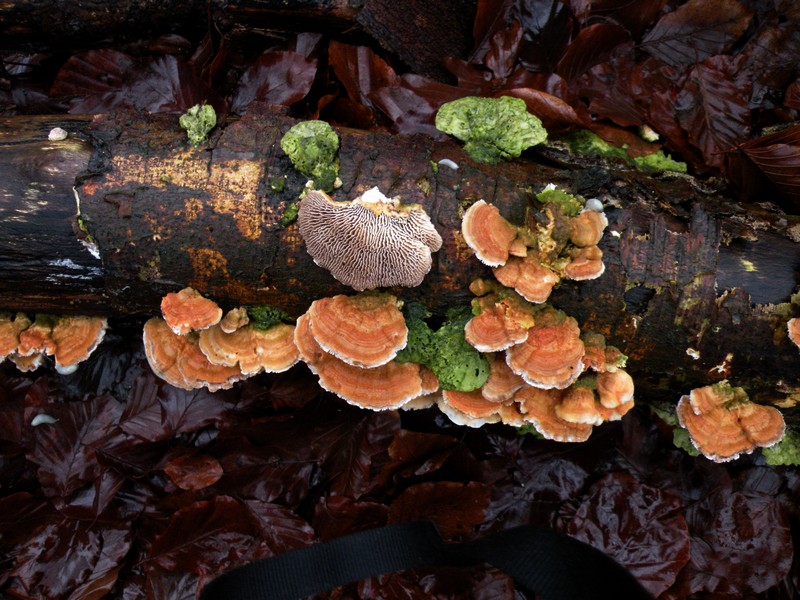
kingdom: Fungi
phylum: Basidiomycota
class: Agaricomycetes
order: Polyporales
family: Polyporaceae
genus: Lenzites
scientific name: Lenzites betulinus
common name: birke-læderporesvamp
